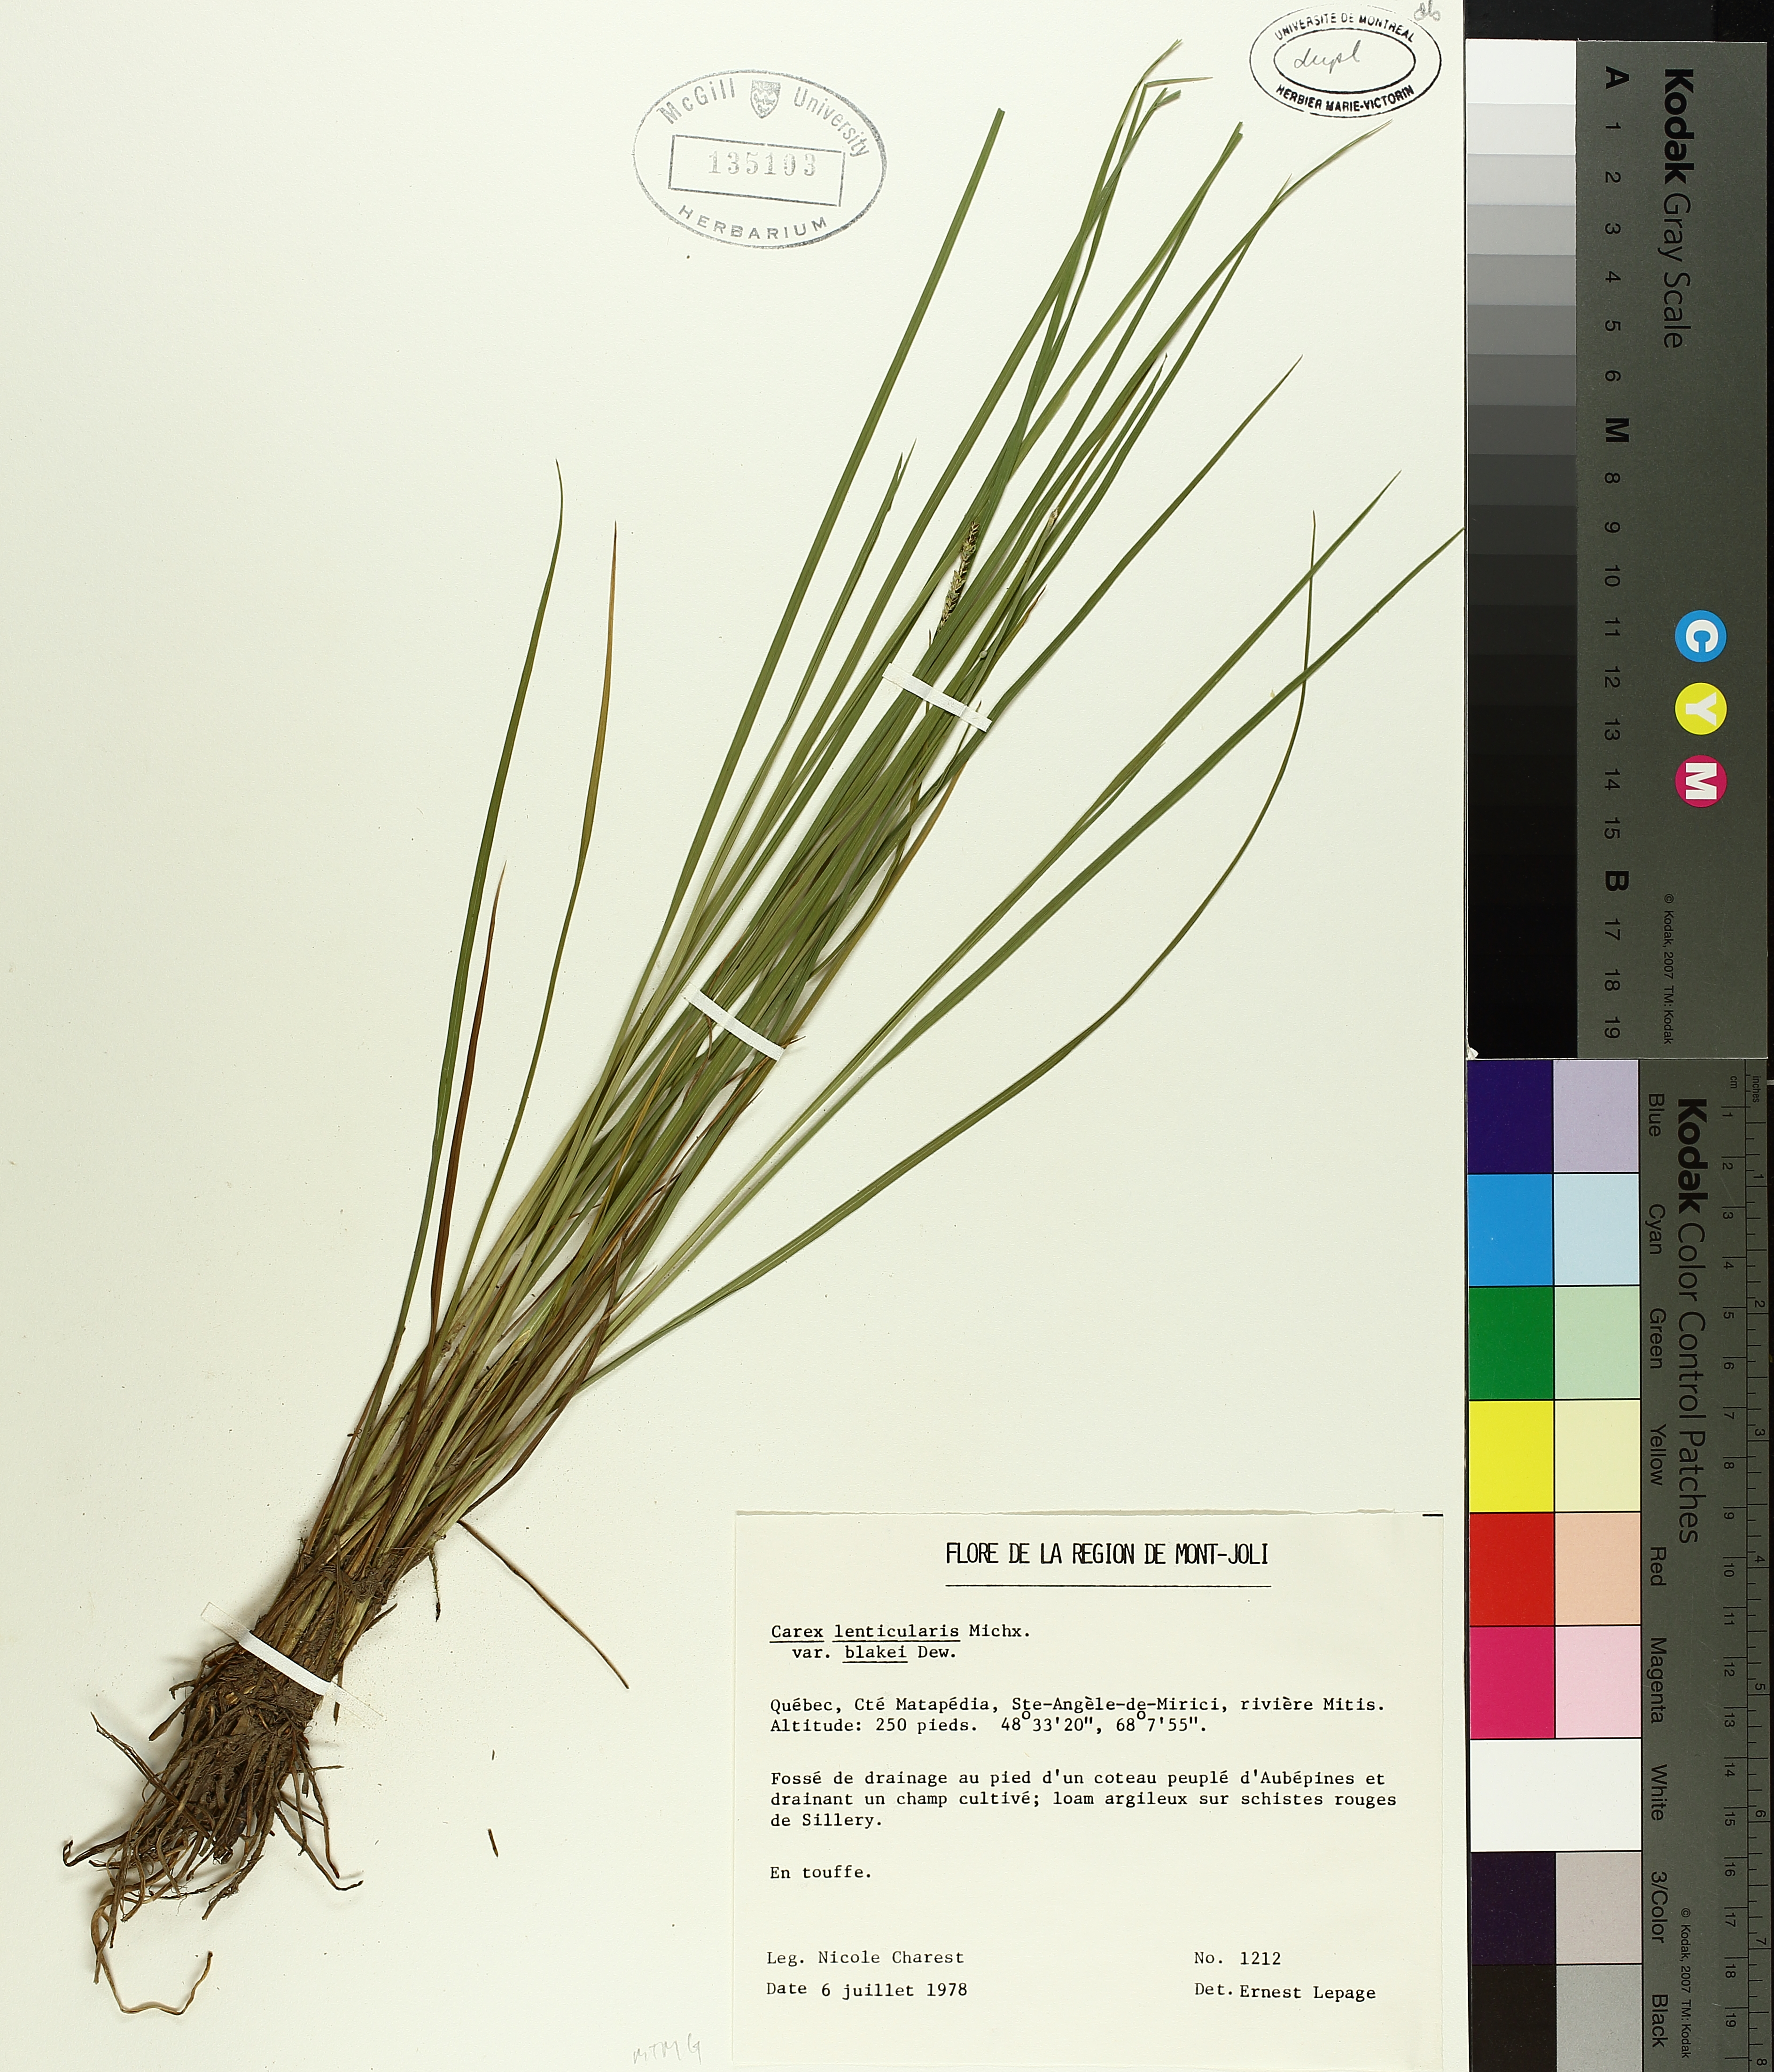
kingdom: Plantae
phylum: Tracheophyta
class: Liliopsida
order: Poales
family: Cyperaceae
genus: Carex
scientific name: Carex lenticularis
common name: Lakeshore sedge
